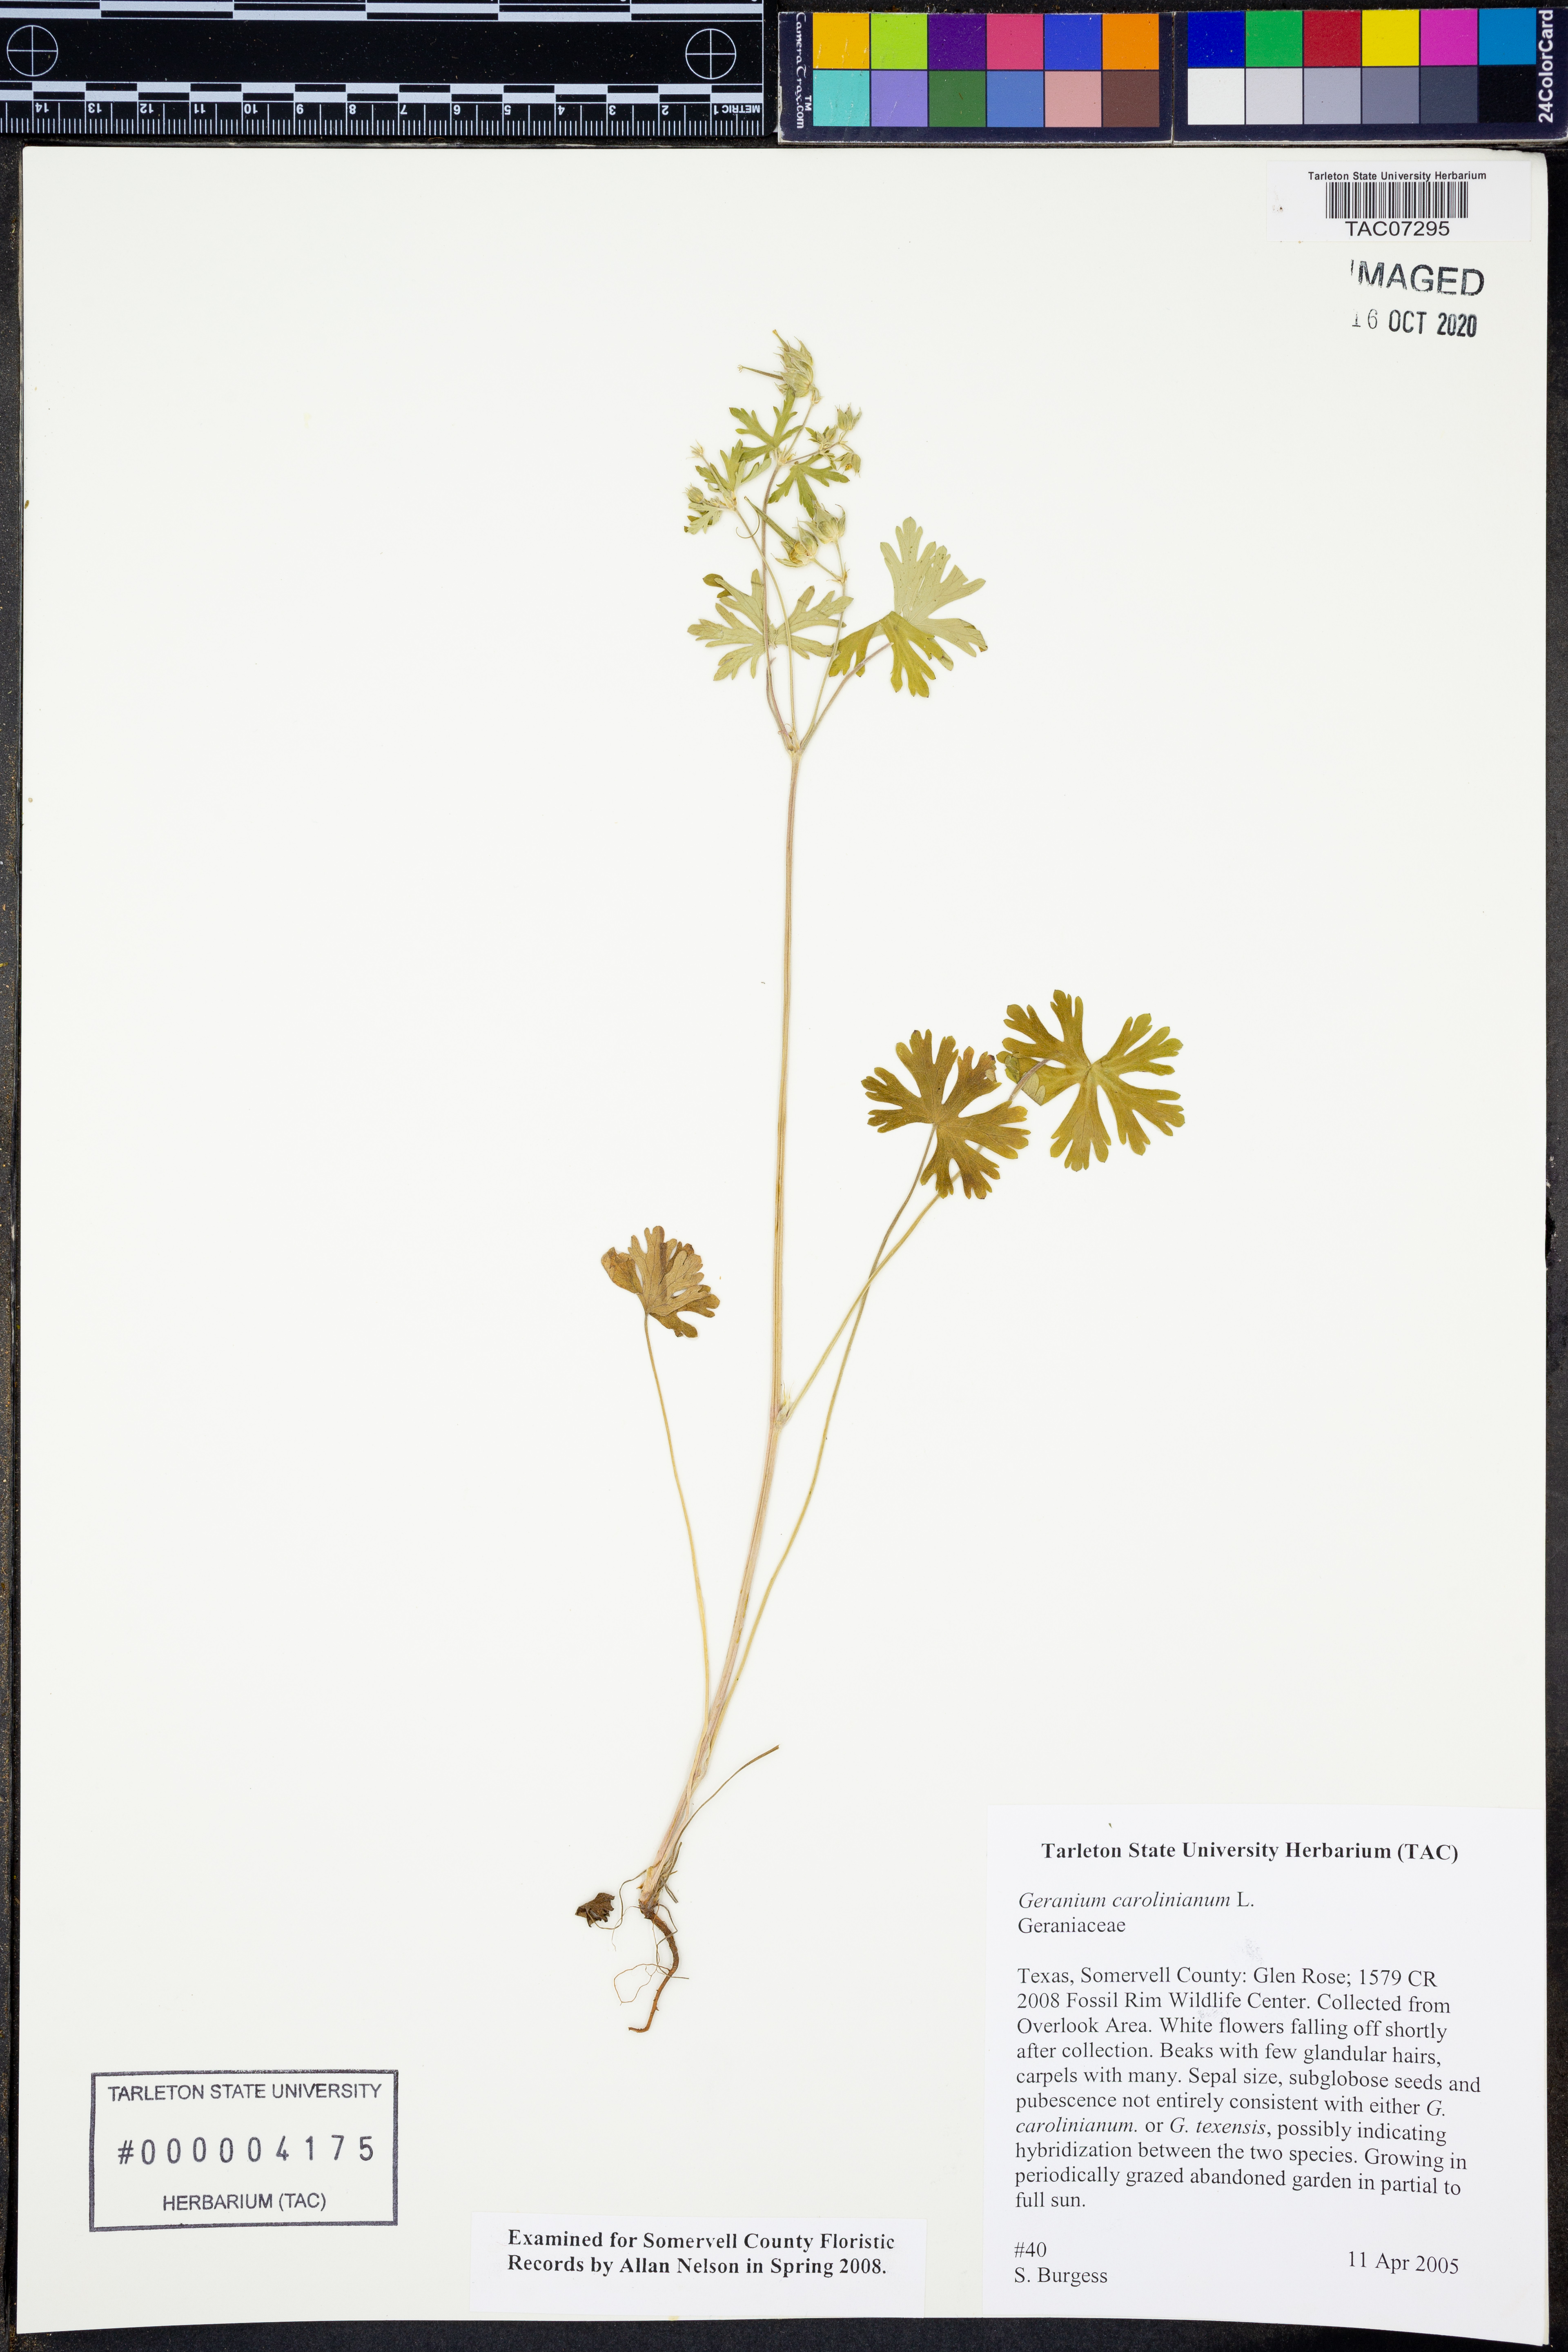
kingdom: Plantae
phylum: Tracheophyta
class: Magnoliopsida
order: Geraniales
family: Geraniaceae
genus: Geranium
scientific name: Geranium carolinianum
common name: Carolina crane's-bill
